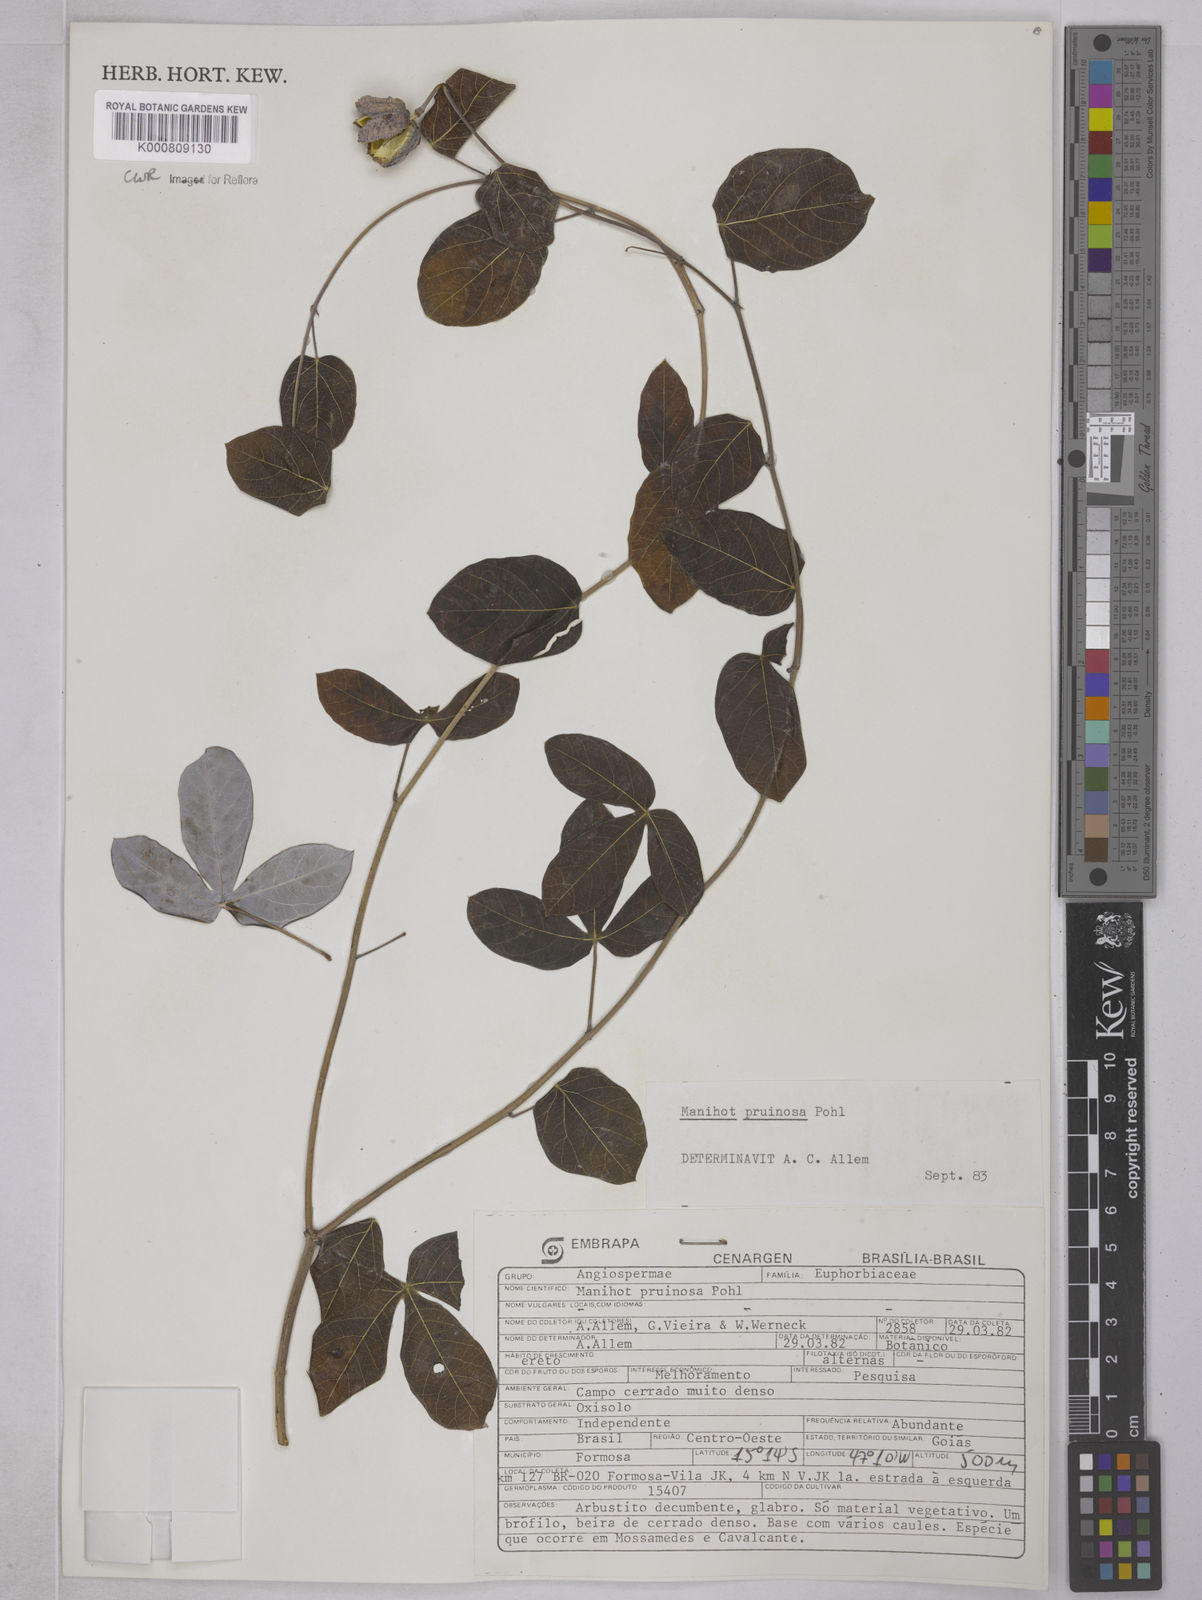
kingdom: Plantae
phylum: Tracheophyta
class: Magnoliopsida
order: Malpighiales
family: Euphorbiaceae
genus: Manihot
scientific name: Manihot pruinosa
